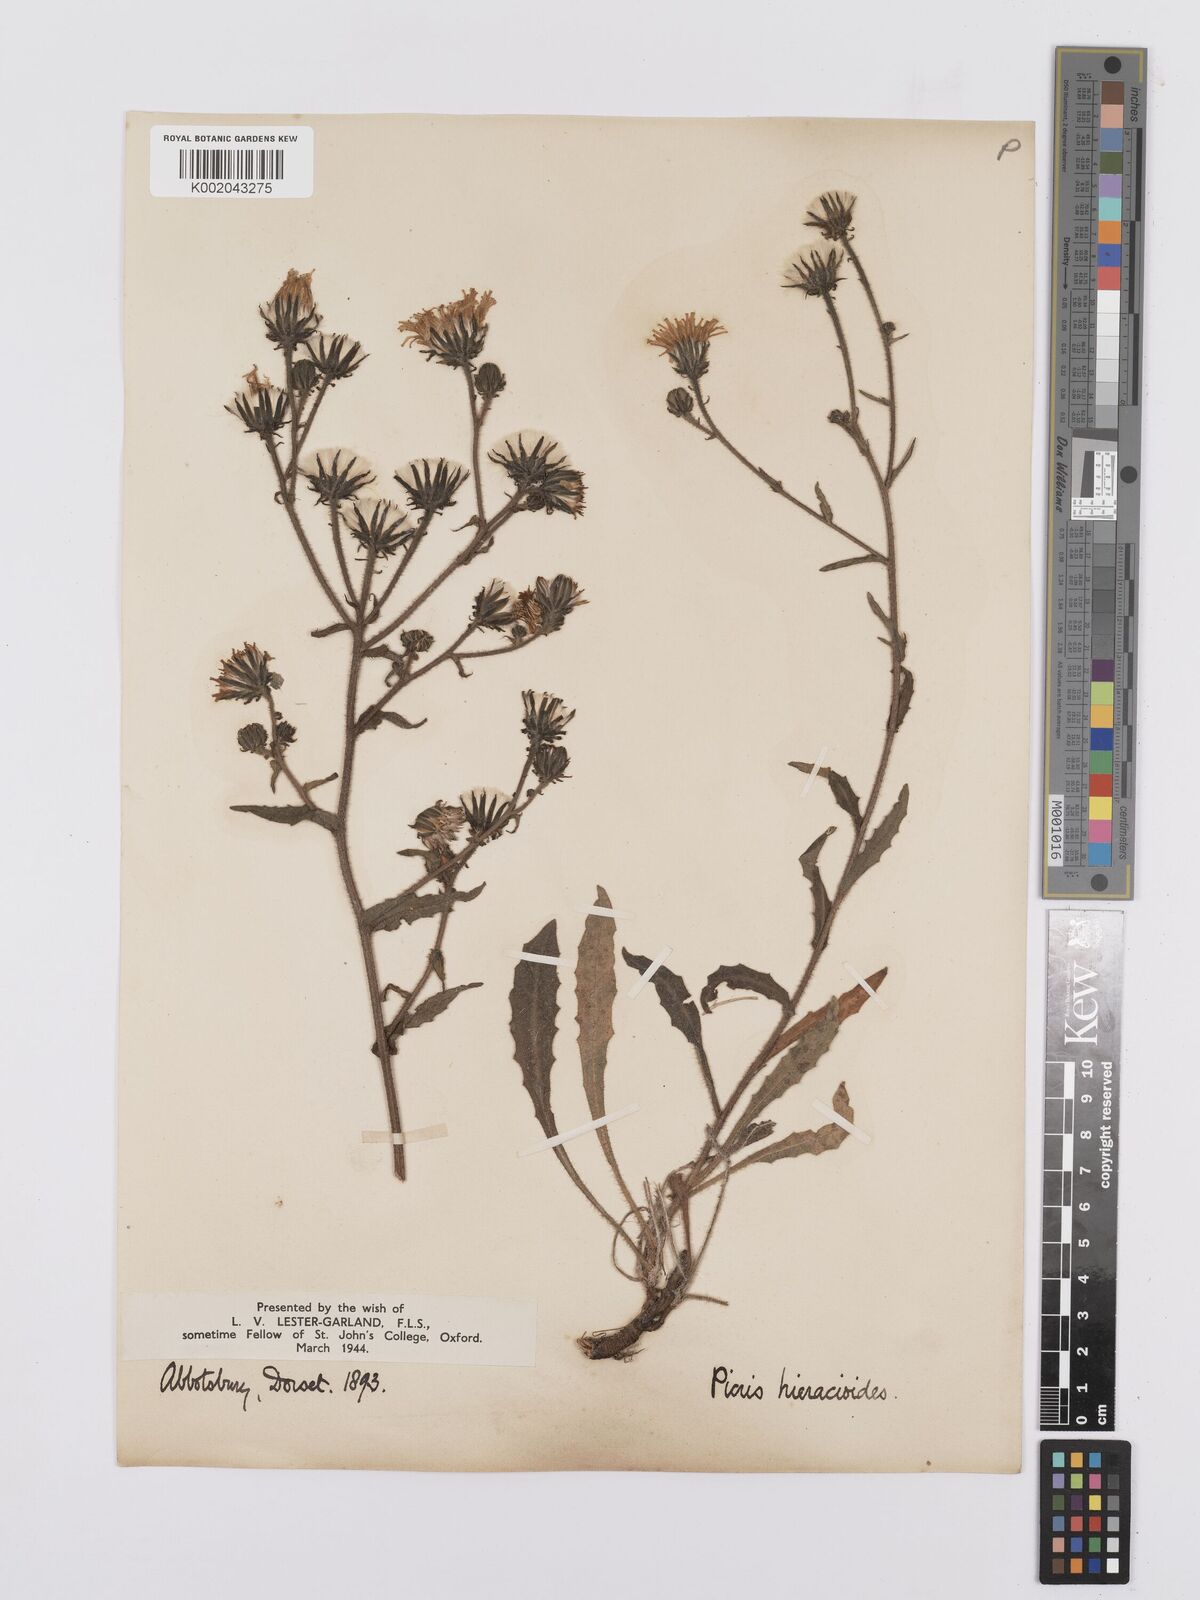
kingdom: Plantae
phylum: Tracheophyta
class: Magnoliopsida
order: Asterales
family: Asteraceae
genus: Picris
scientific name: Picris hieracioides
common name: Hawkweed oxtongue
